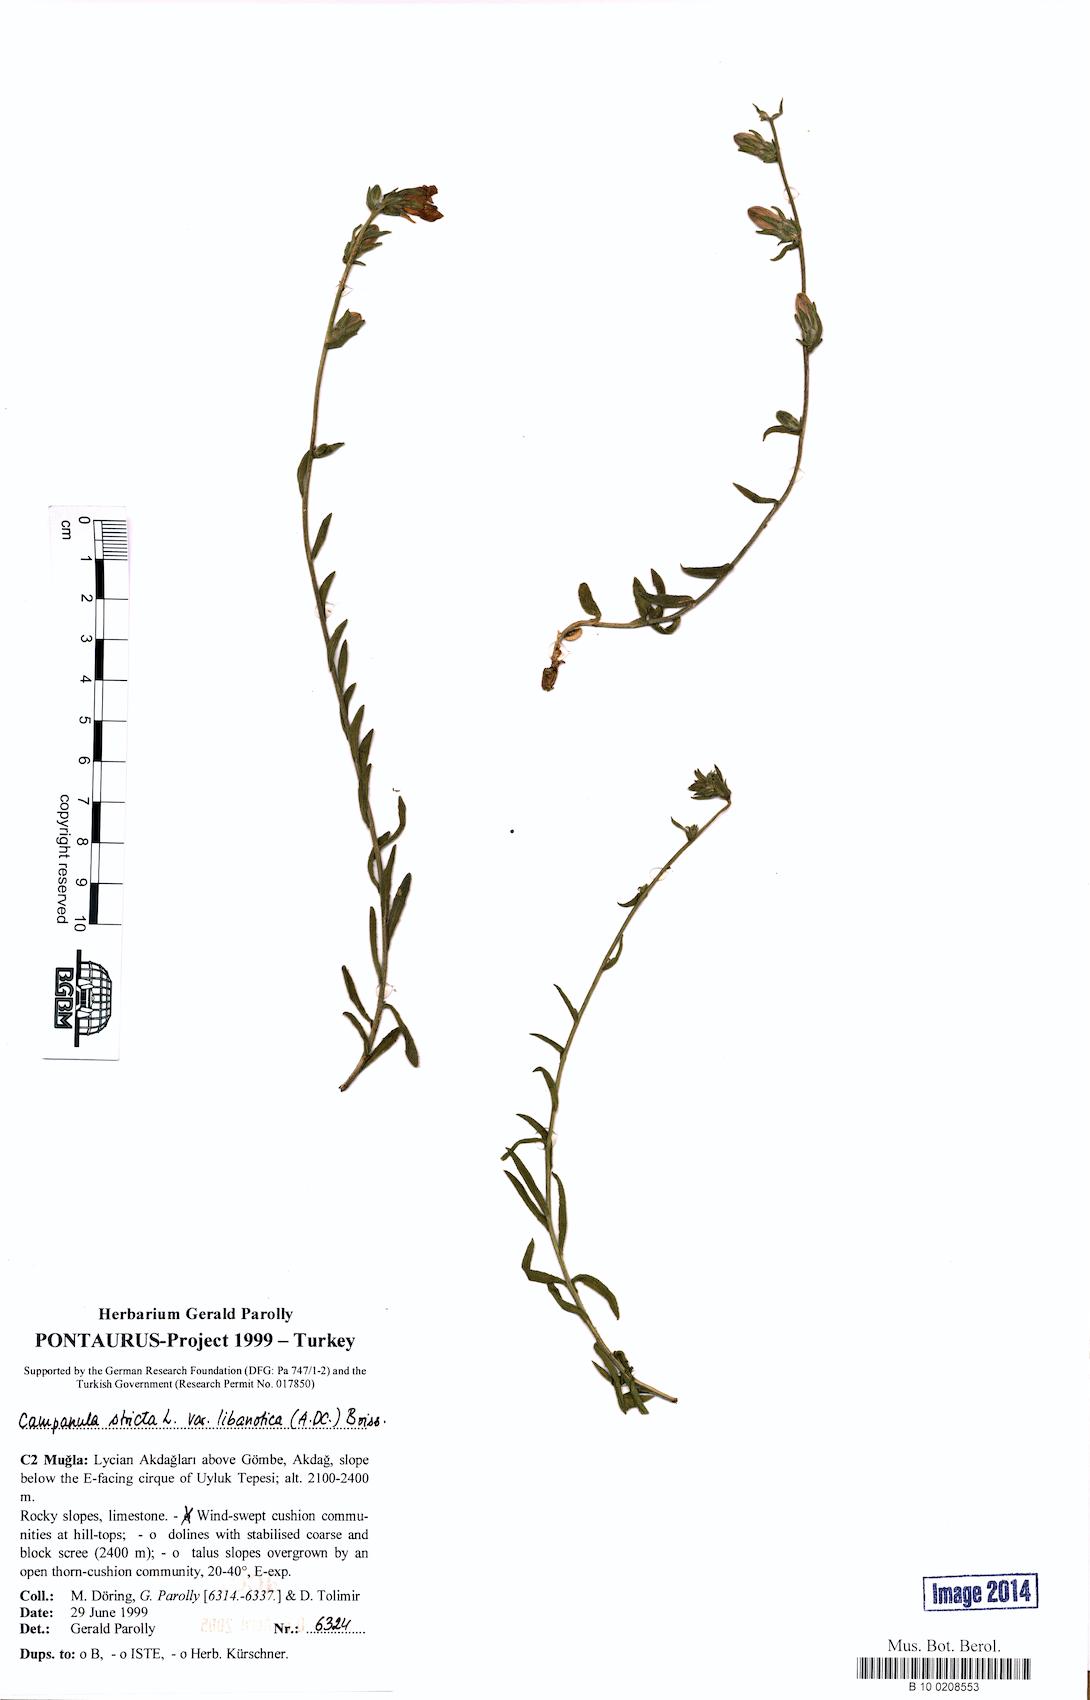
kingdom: Plantae
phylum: Tracheophyta
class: Magnoliopsida
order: Asterales
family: Campanulaceae
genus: Campanula
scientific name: Campanula stricta
